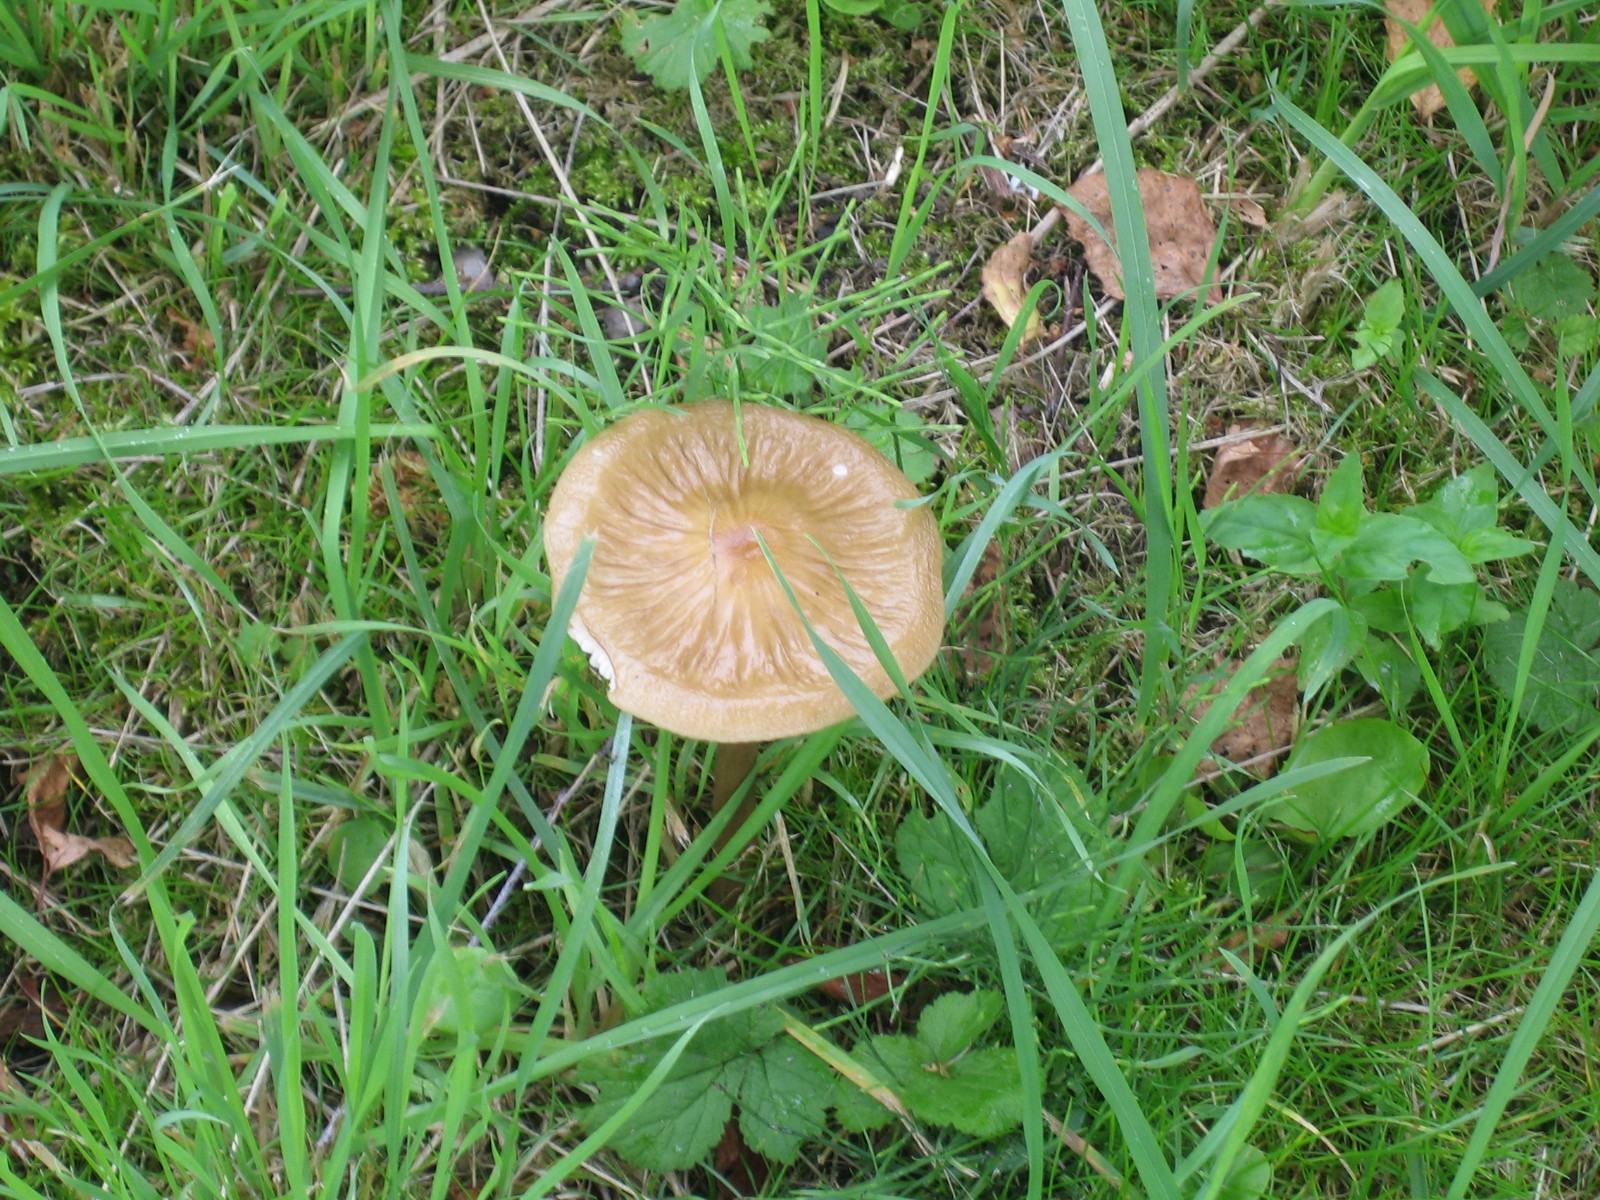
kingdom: Fungi
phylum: Basidiomycota
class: Agaricomycetes
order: Agaricales
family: Physalacriaceae
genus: Hymenopellis
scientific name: Hymenopellis radicata
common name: almindelig pælerodshat
